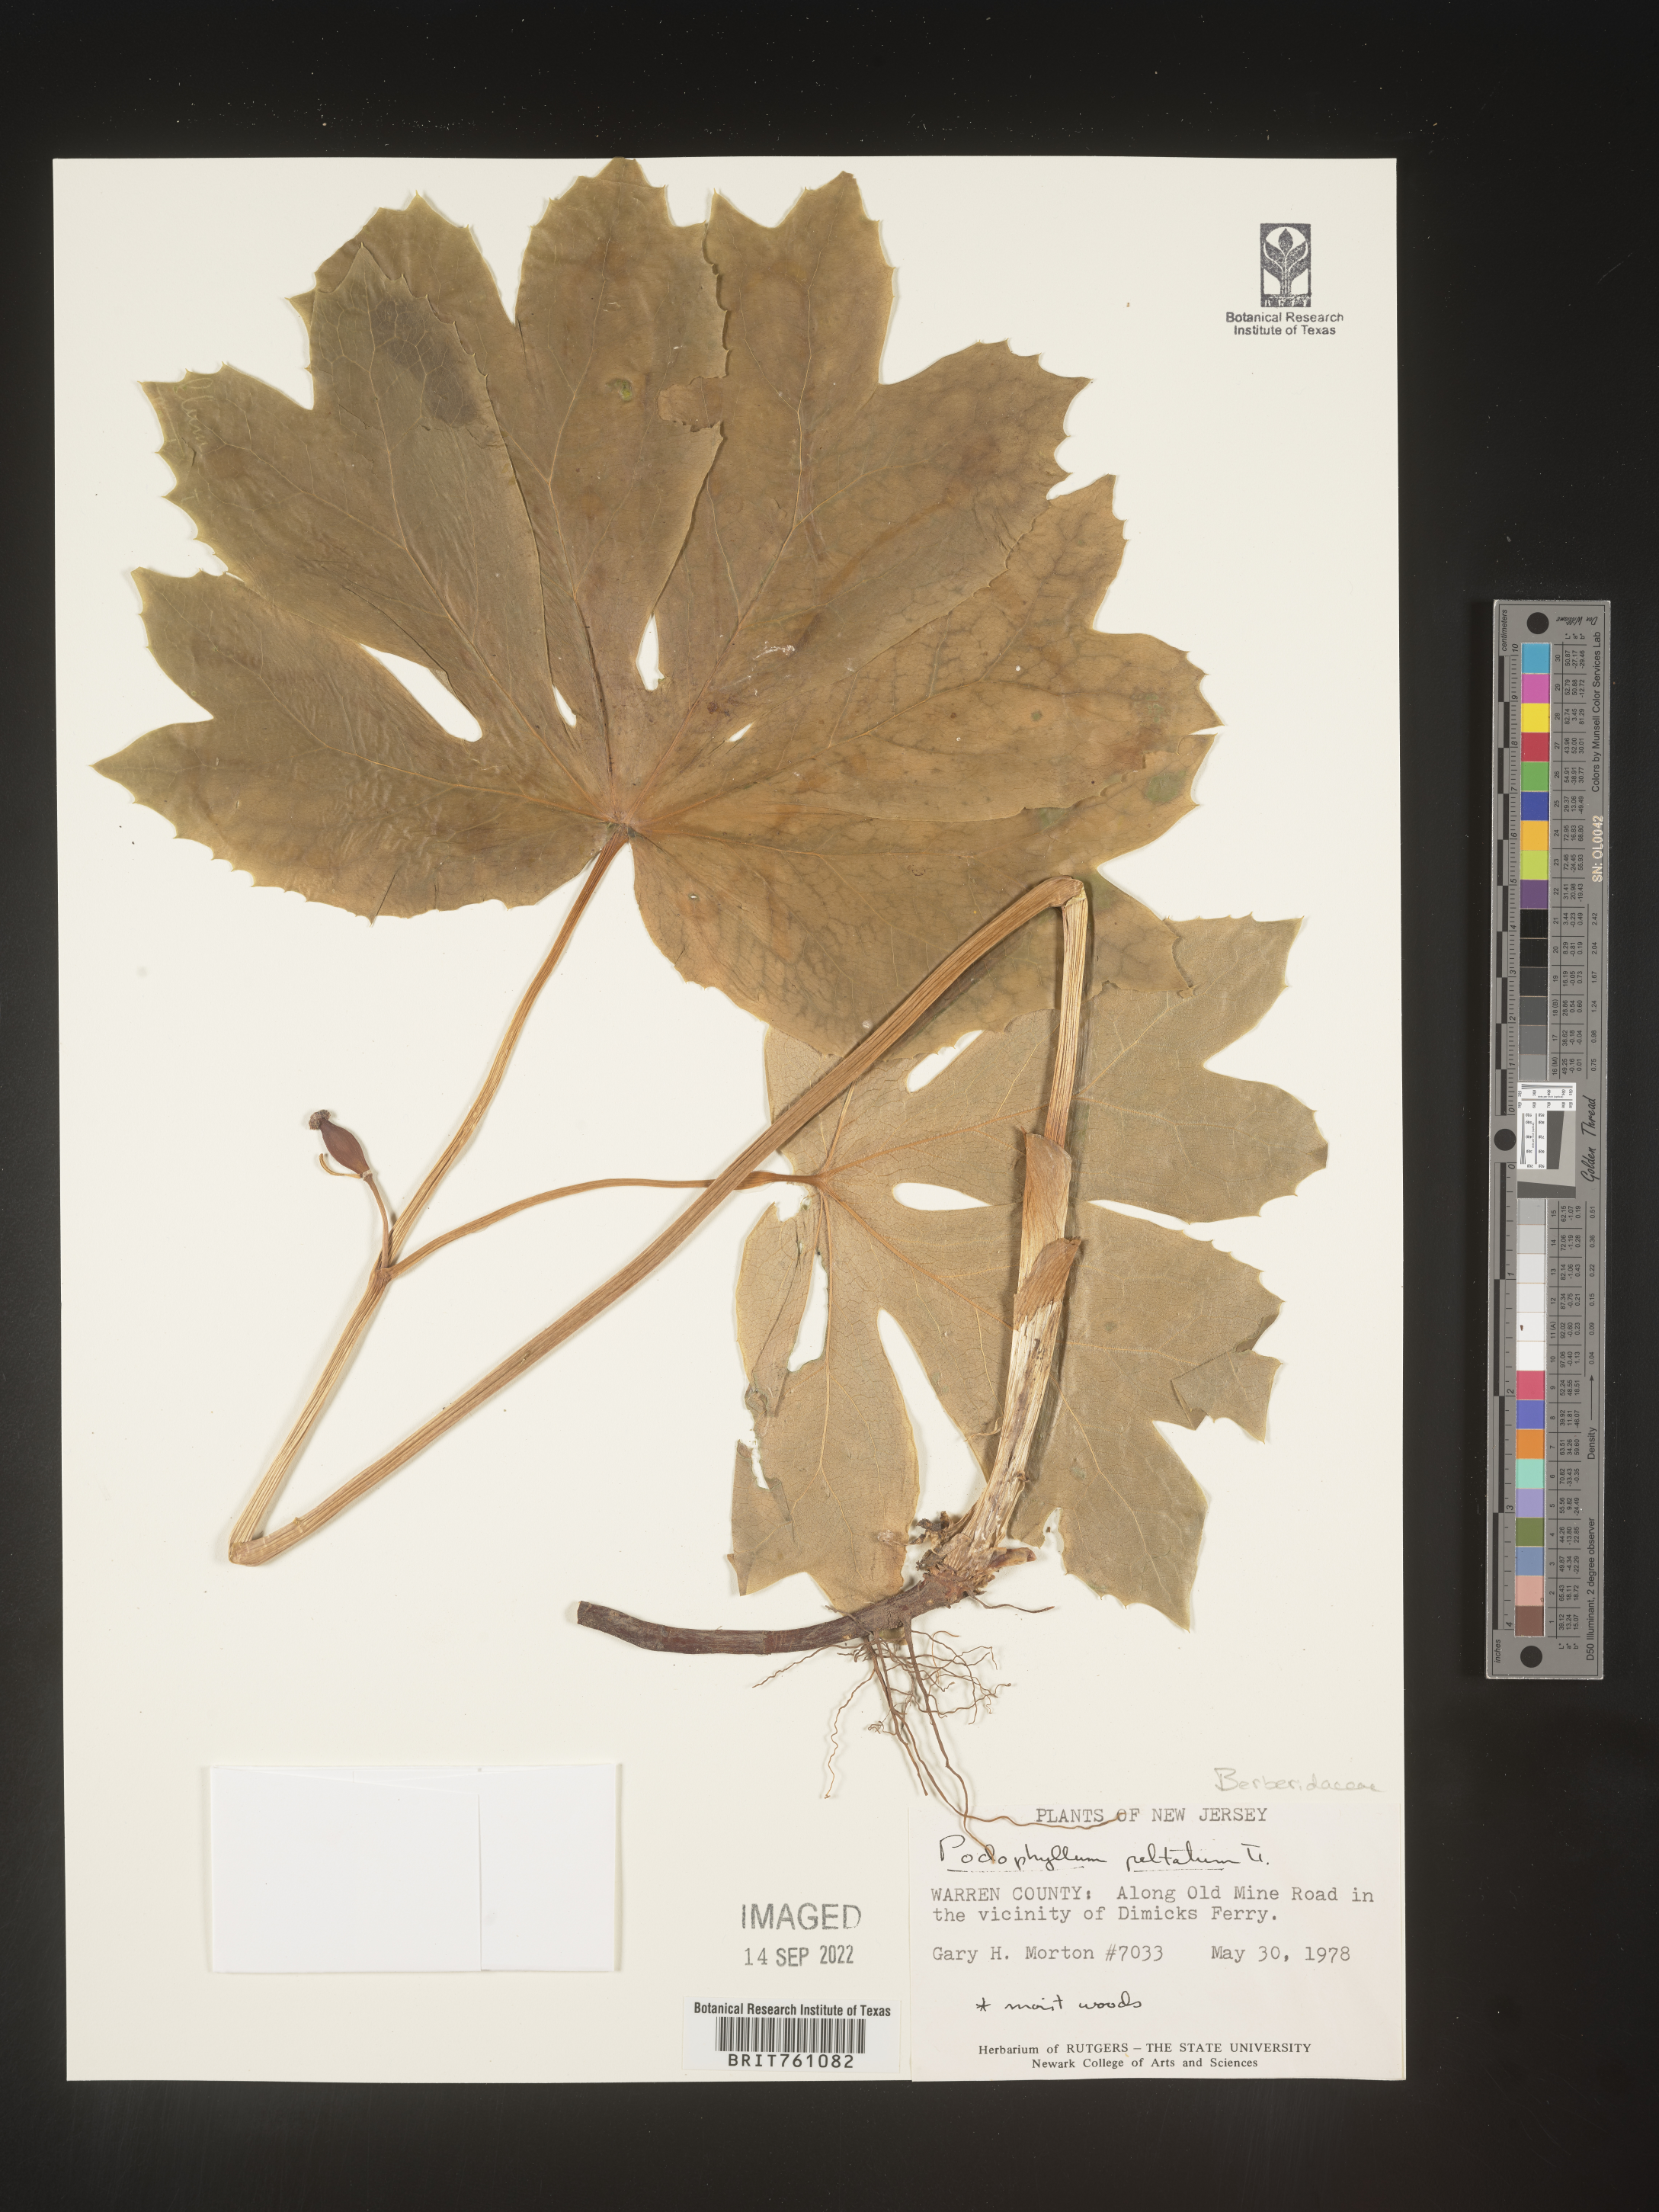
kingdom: Plantae
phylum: Tracheophyta
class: Magnoliopsida
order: Ranunculales
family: Berberidaceae
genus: Podophyllum
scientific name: Podophyllum peltatum
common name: Wild mandrake
